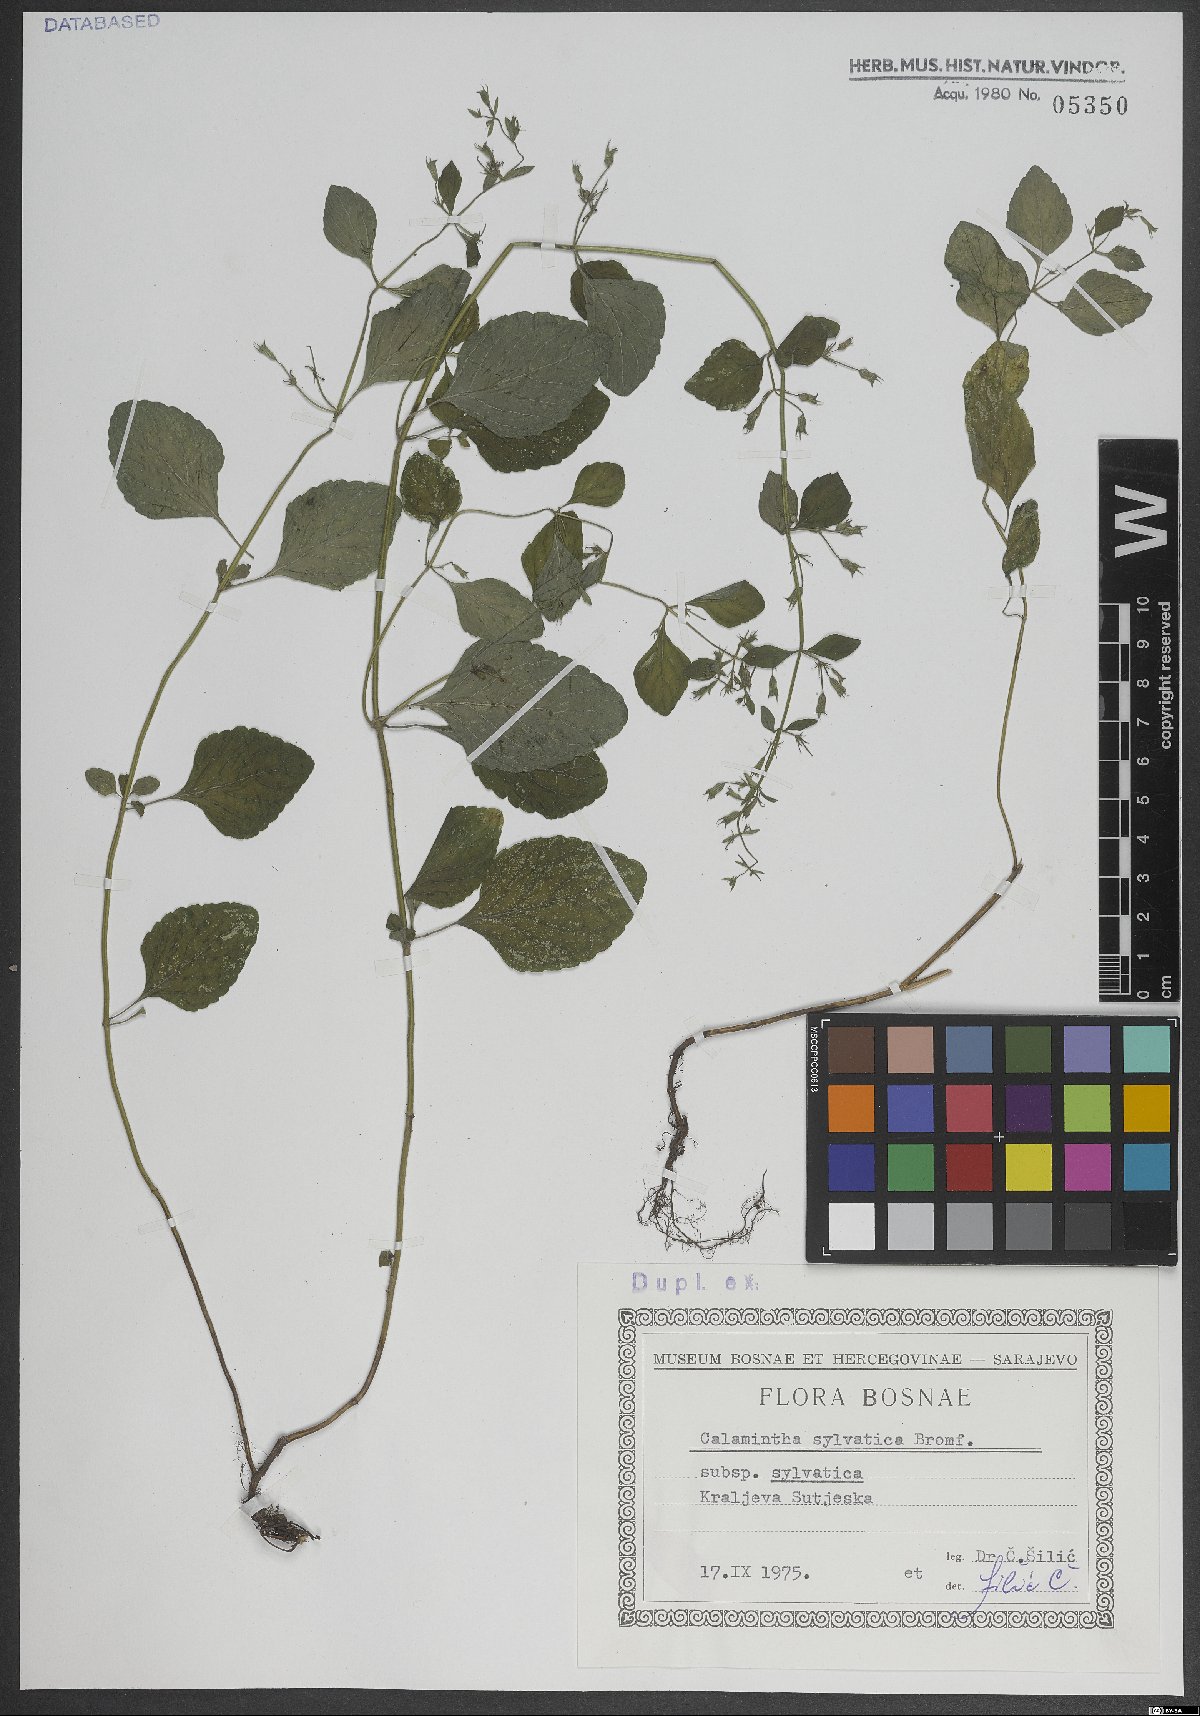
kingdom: Plantae
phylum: Tracheophyta
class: Magnoliopsida
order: Lamiales
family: Lamiaceae
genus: Clinopodium
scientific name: Clinopodium menthifolium
